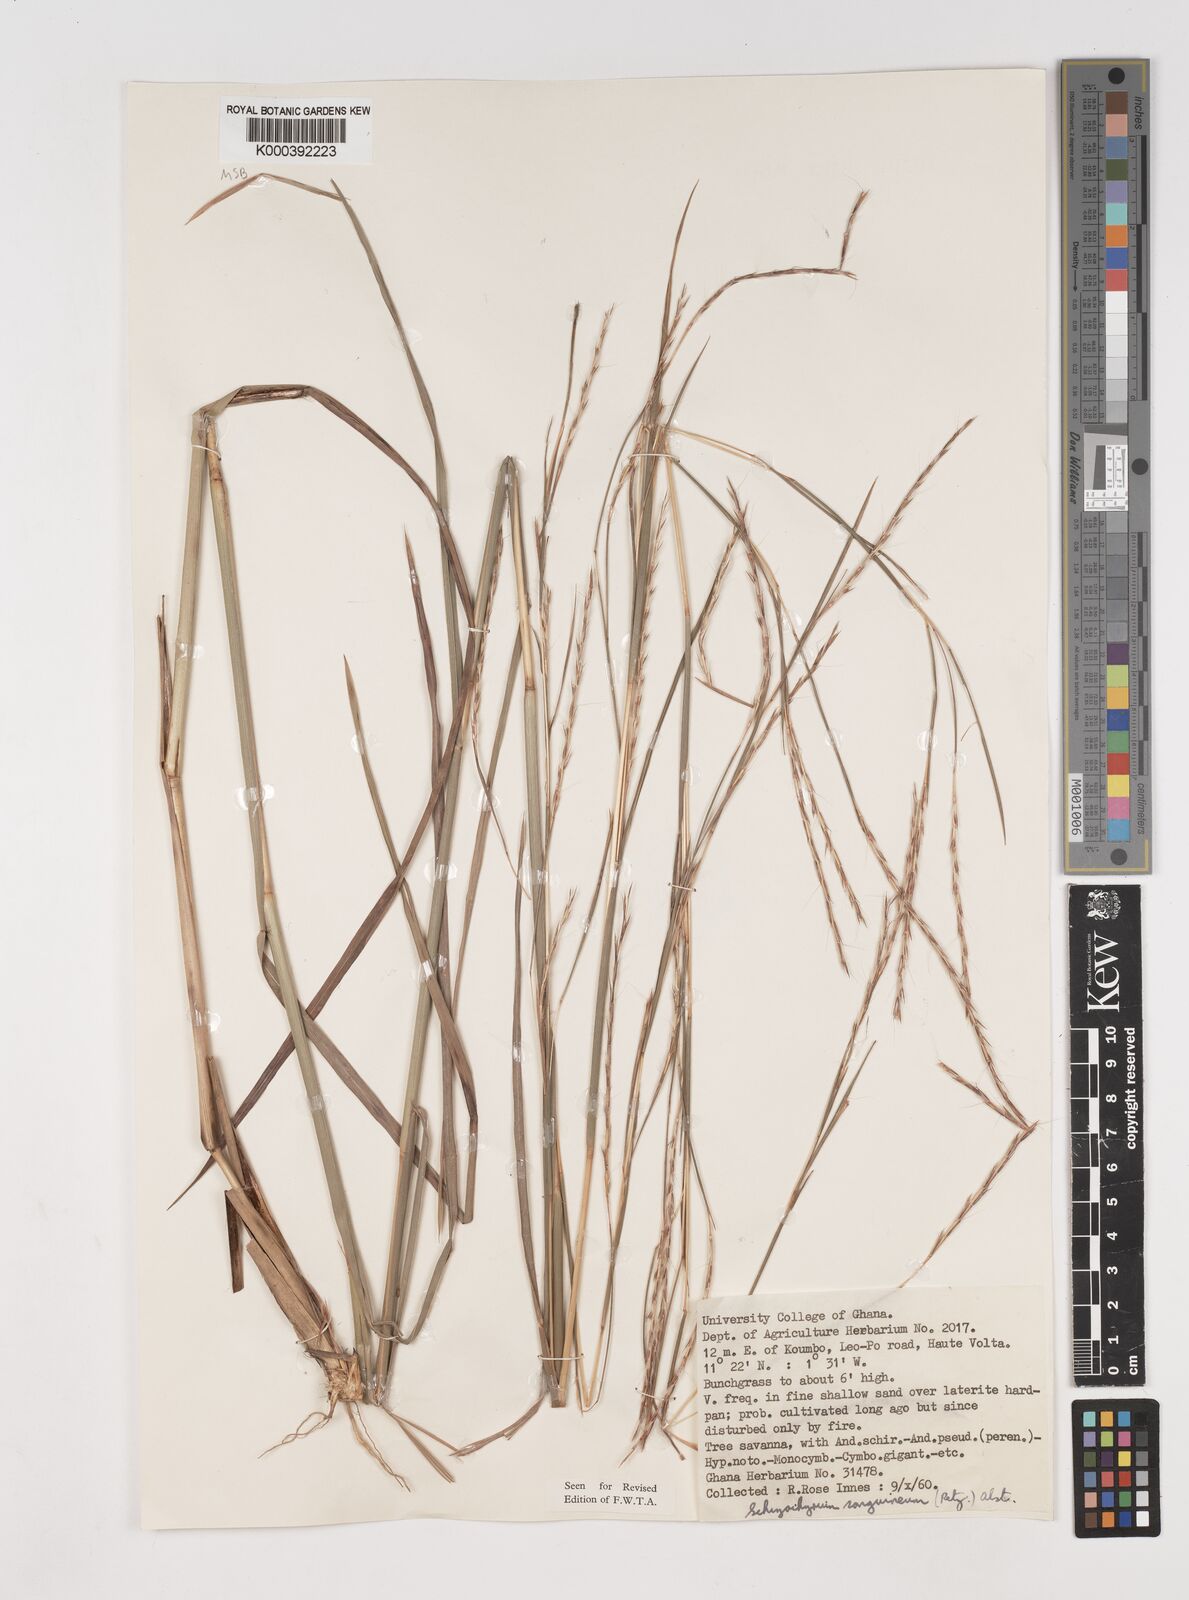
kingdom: Plantae
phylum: Tracheophyta
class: Liliopsida
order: Poales
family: Poaceae
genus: Schizachyrium
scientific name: Schizachyrium sanguineum
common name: Crimson bluestem
